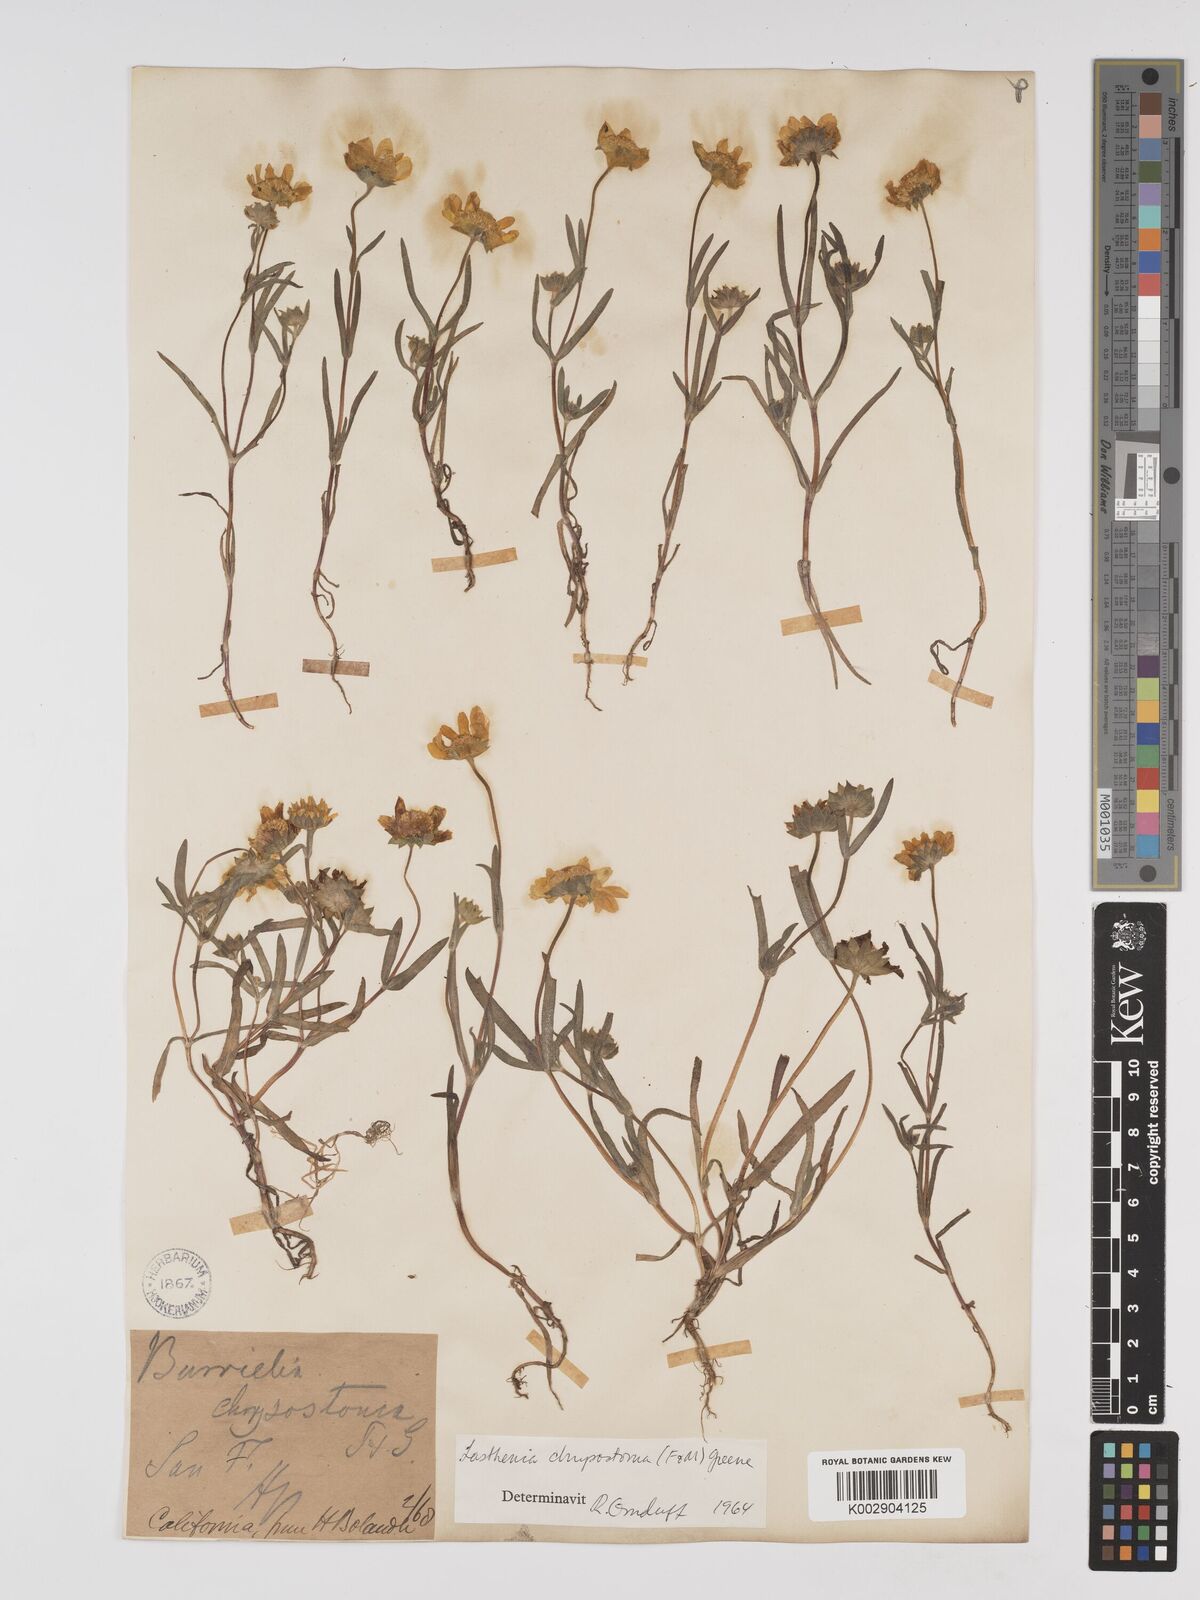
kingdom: Plantae
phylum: Tracheophyta
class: Magnoliopsida
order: Asterales
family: Asteraceae
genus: Lasthenia
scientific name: Lasthenia californica
